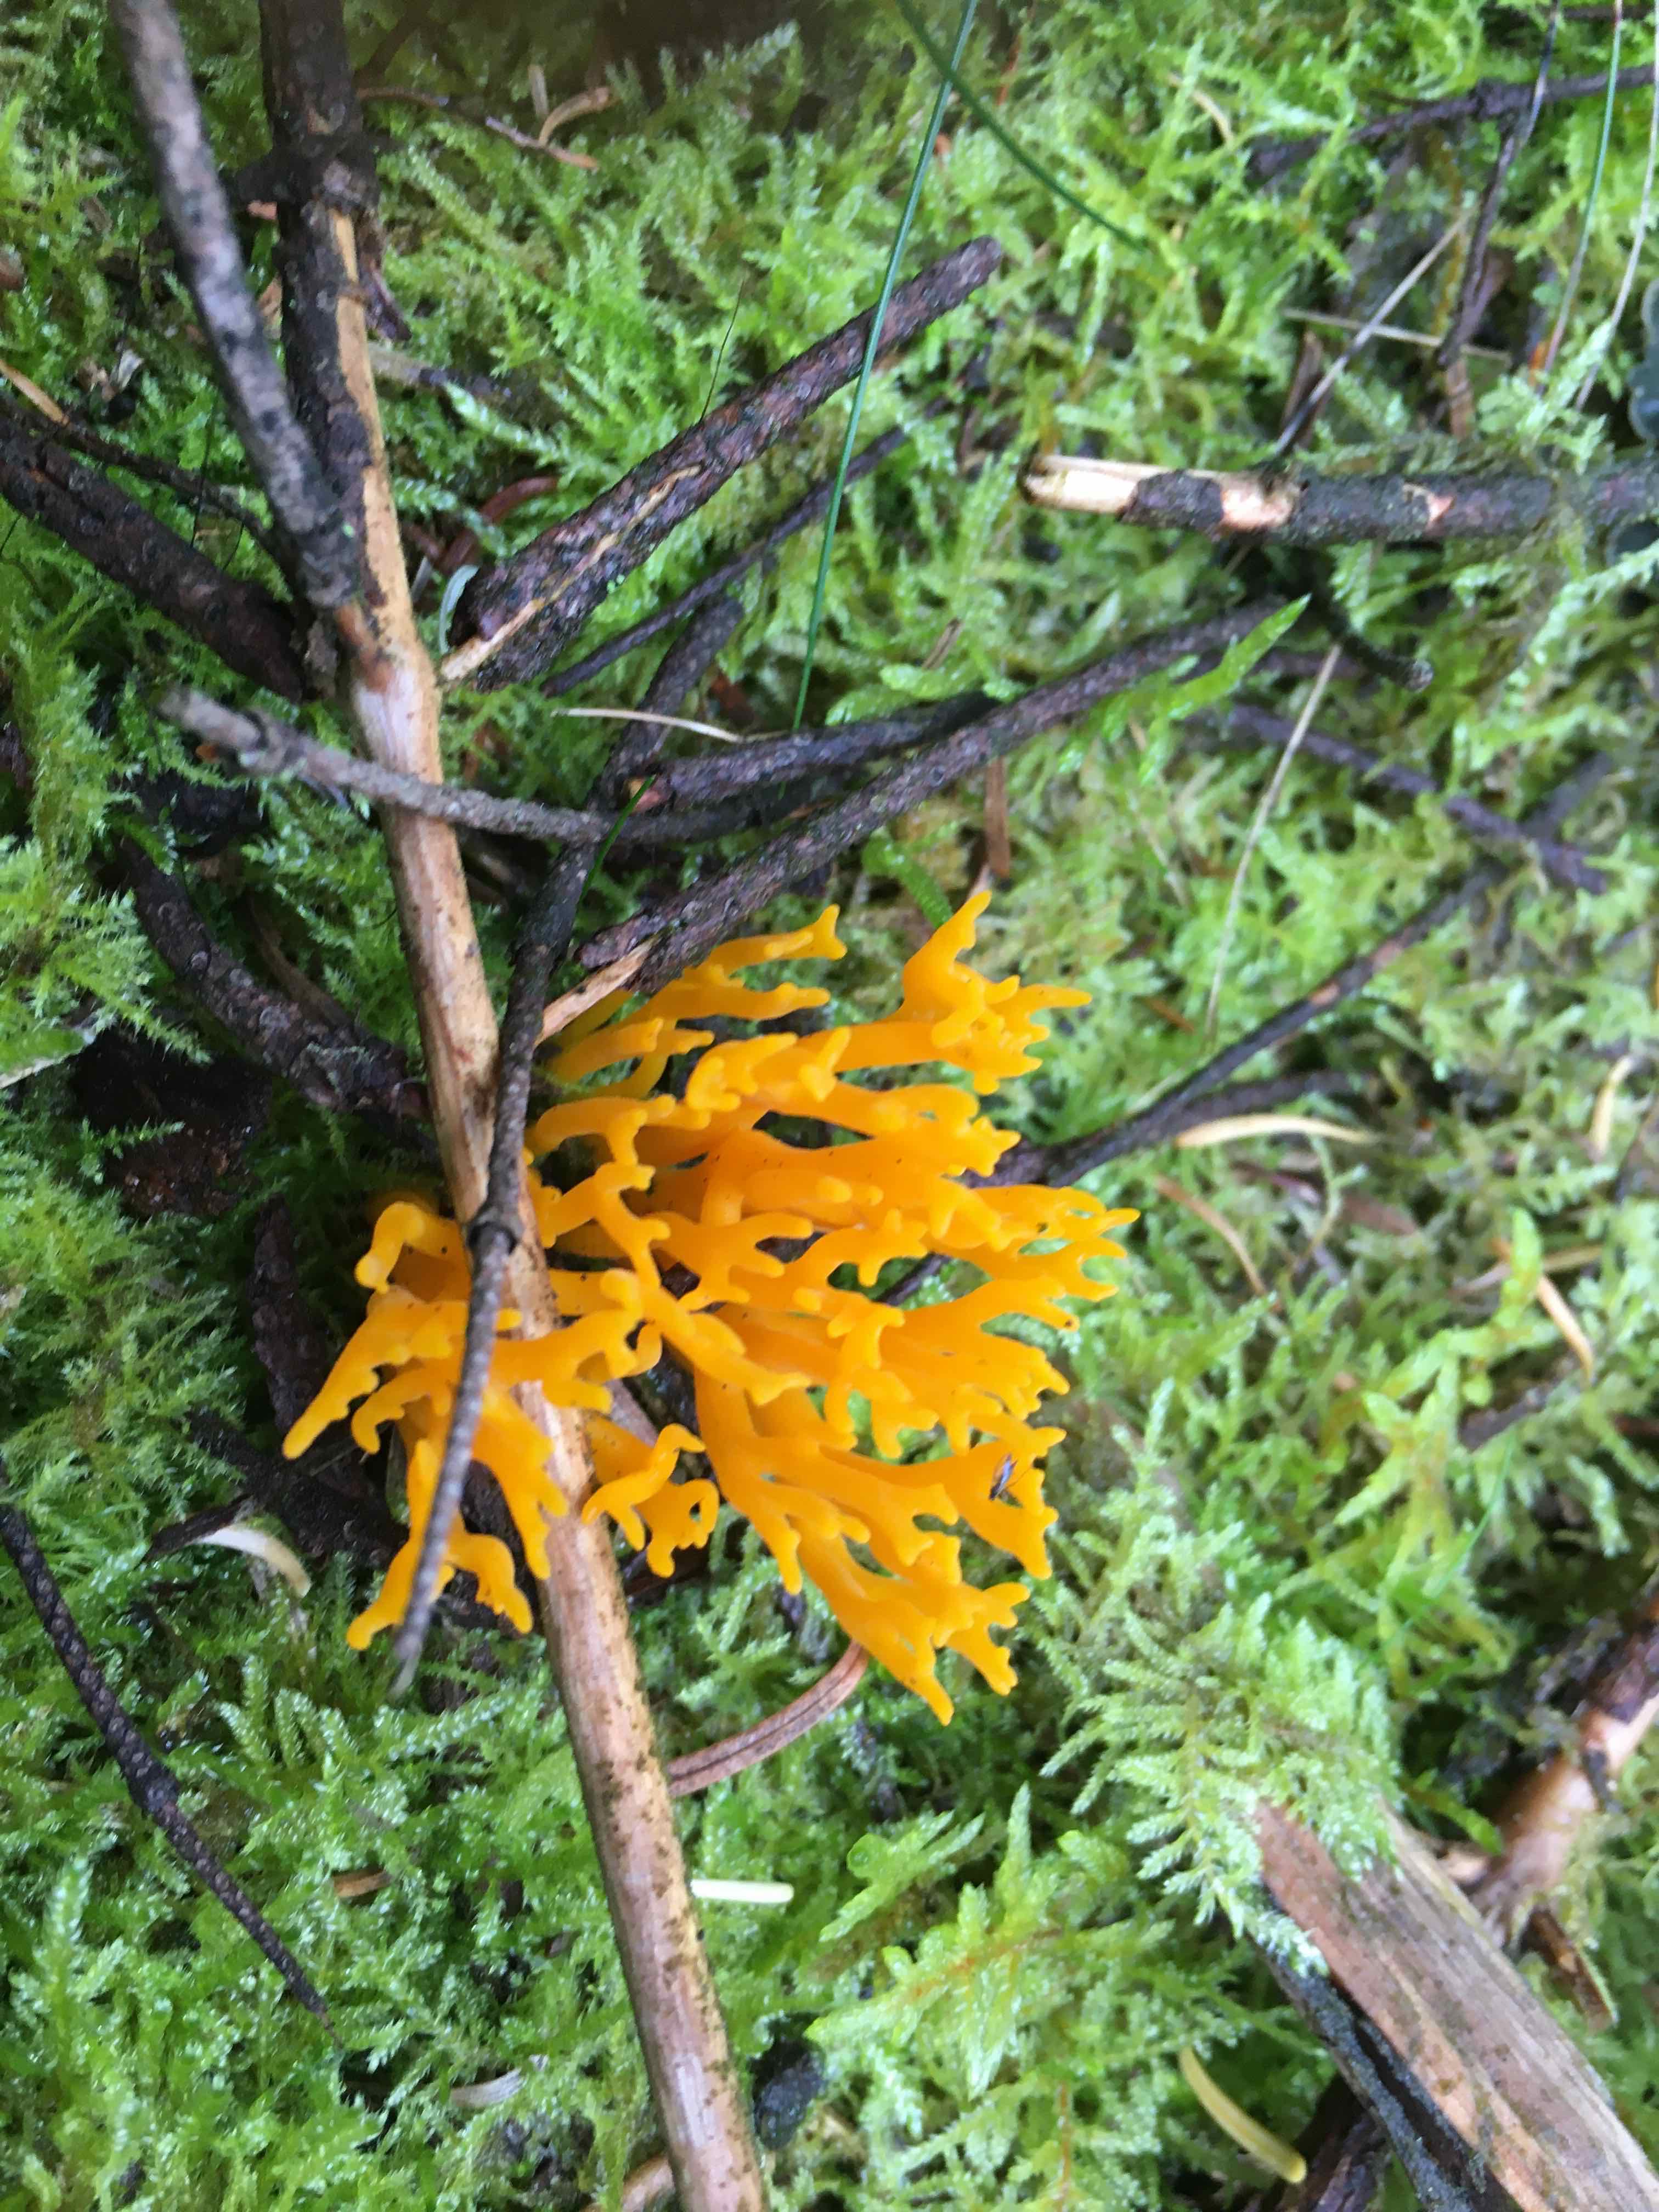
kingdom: Fungi
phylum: Basidiomycota
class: Dacrymycetes
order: Dacrymycetales
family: Dacrymycetaceae
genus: Calocera
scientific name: Calocera viscosa
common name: almindelig guldgaffel
